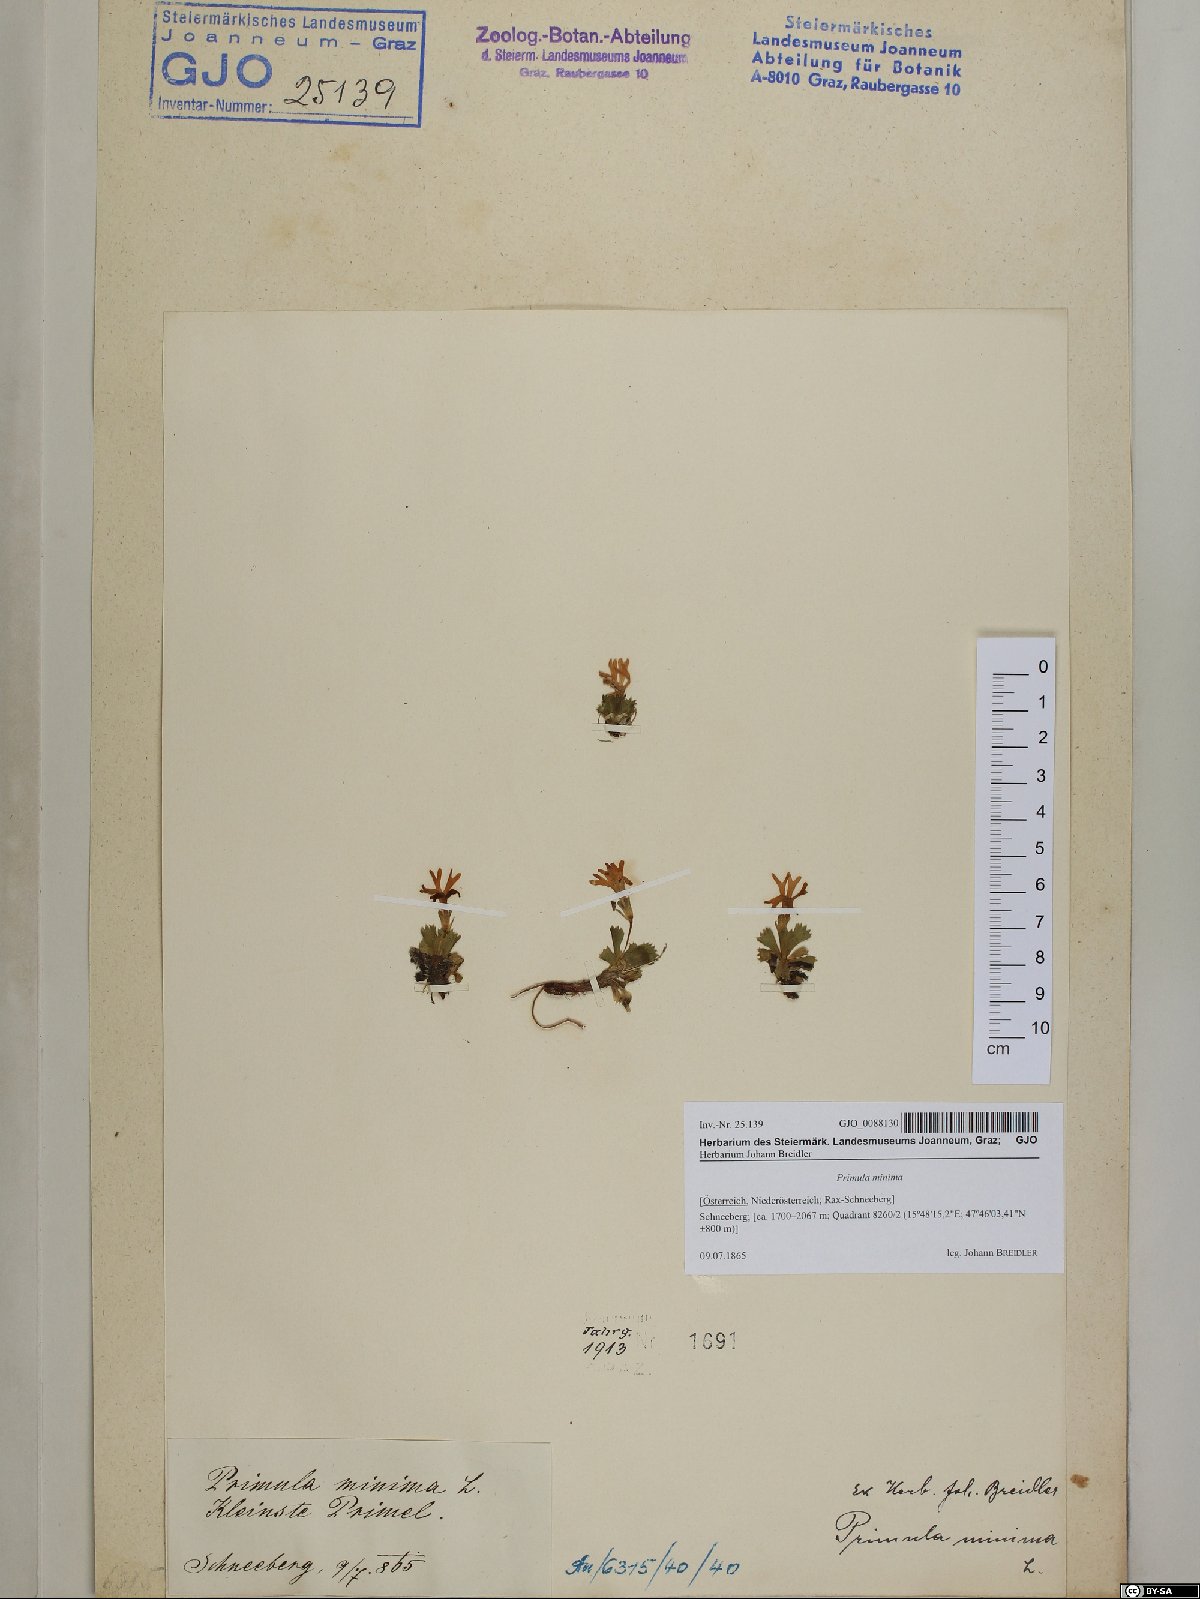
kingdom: Plantae
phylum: Tracheophyta
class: Magnoliopsida
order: Ericales
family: Primulaceae
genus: Primula
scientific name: Primula minima
